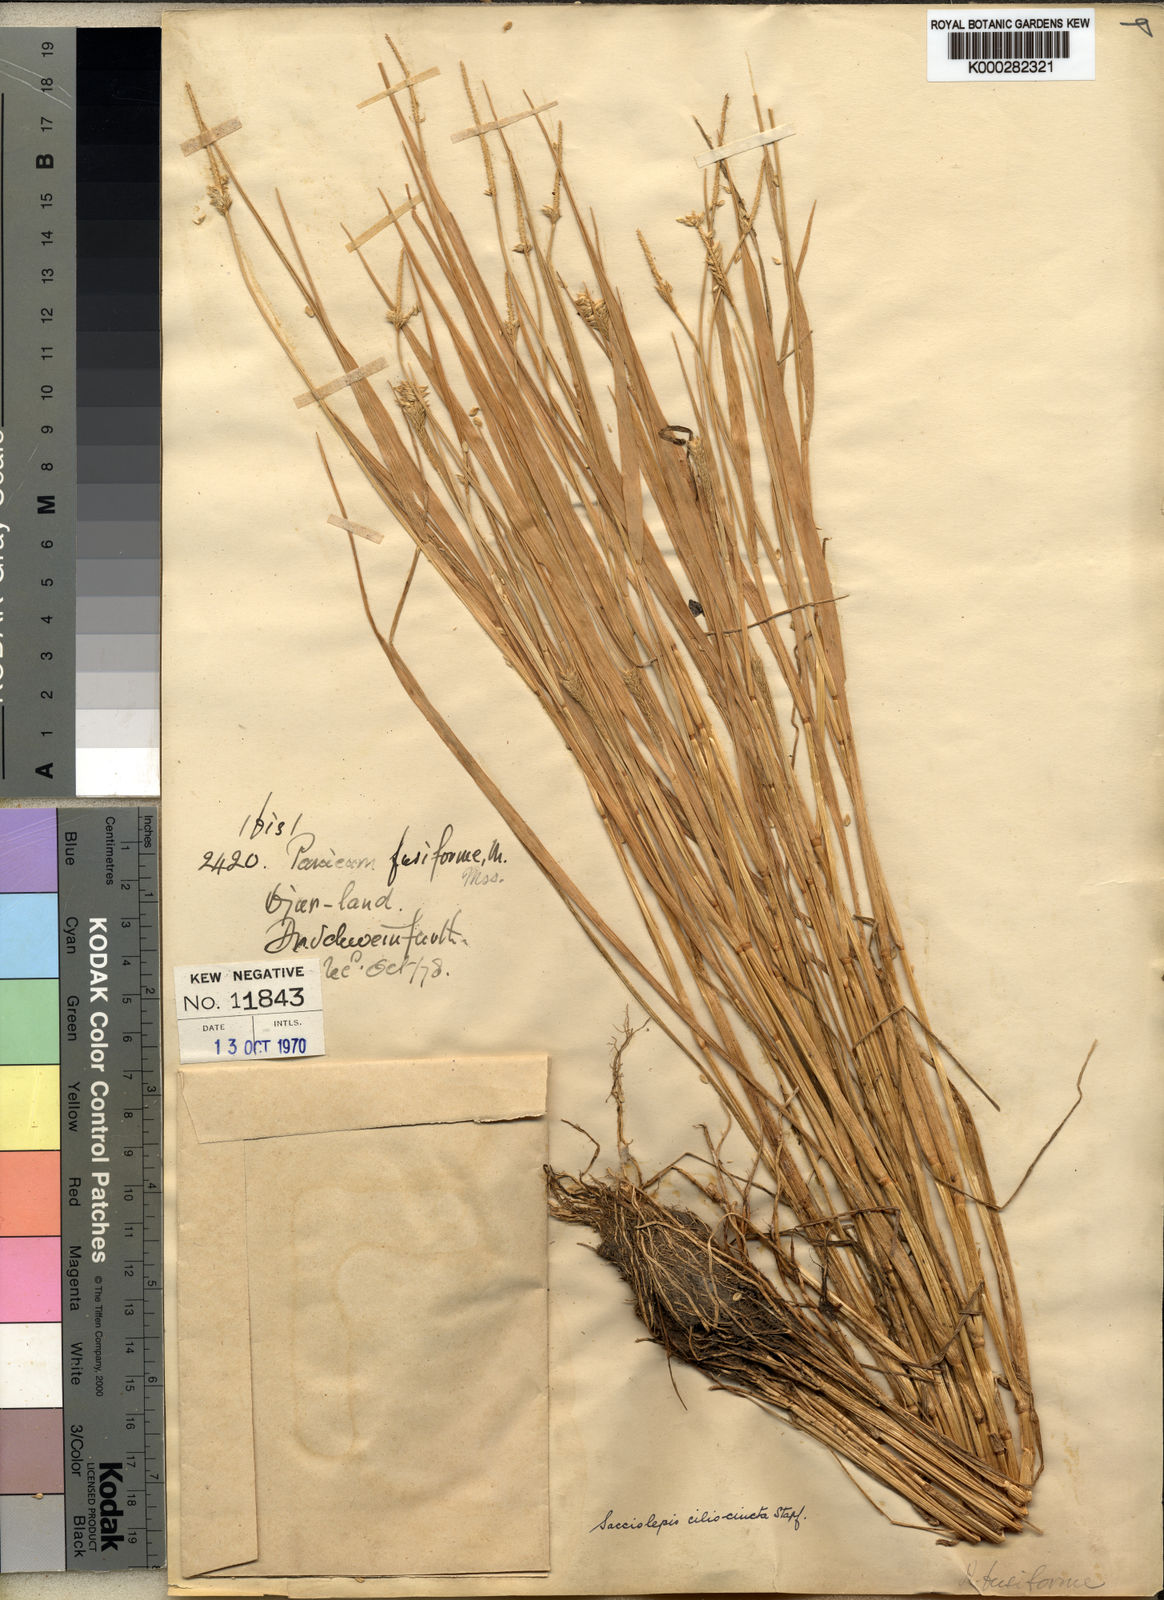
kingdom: Plantae
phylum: Tracheophyta
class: Liliopsida
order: Poales
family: Poaceae
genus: Sacciolepis
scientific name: Sacciolepis ciliocincta
